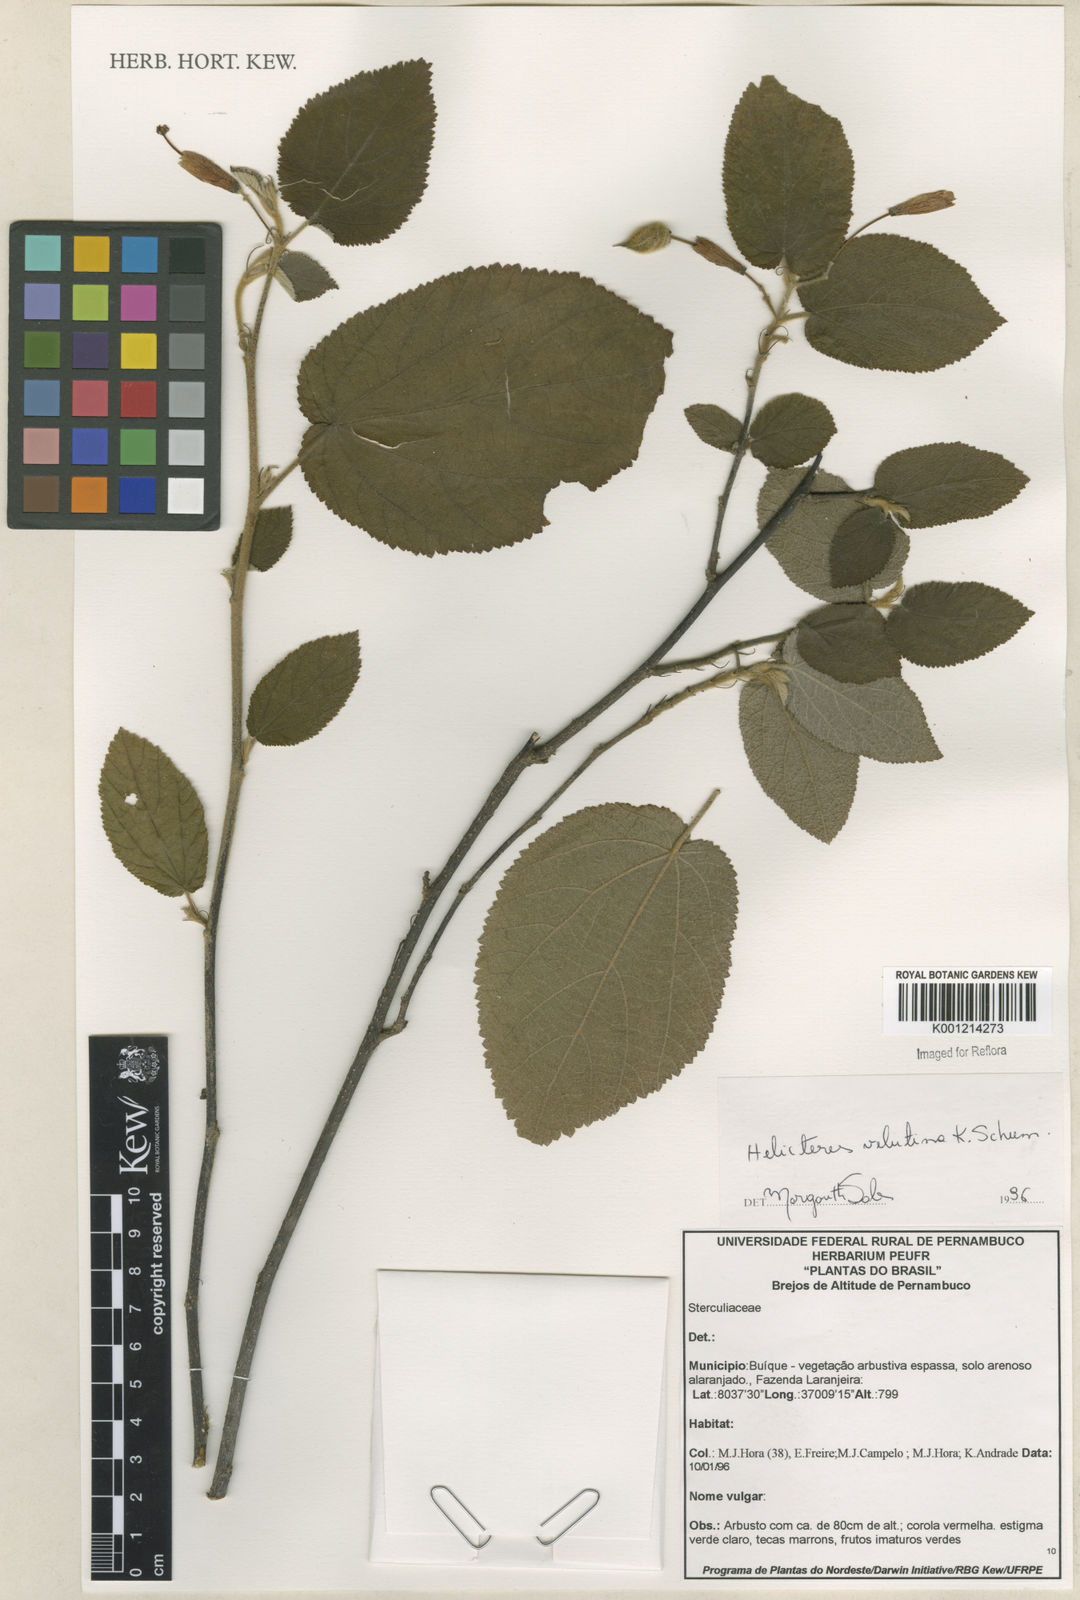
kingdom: Plantae
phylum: Tracheophyta
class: Magnoliopsida
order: Malvales
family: Malvaceae
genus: Helicteres
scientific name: Helicteres velutina
